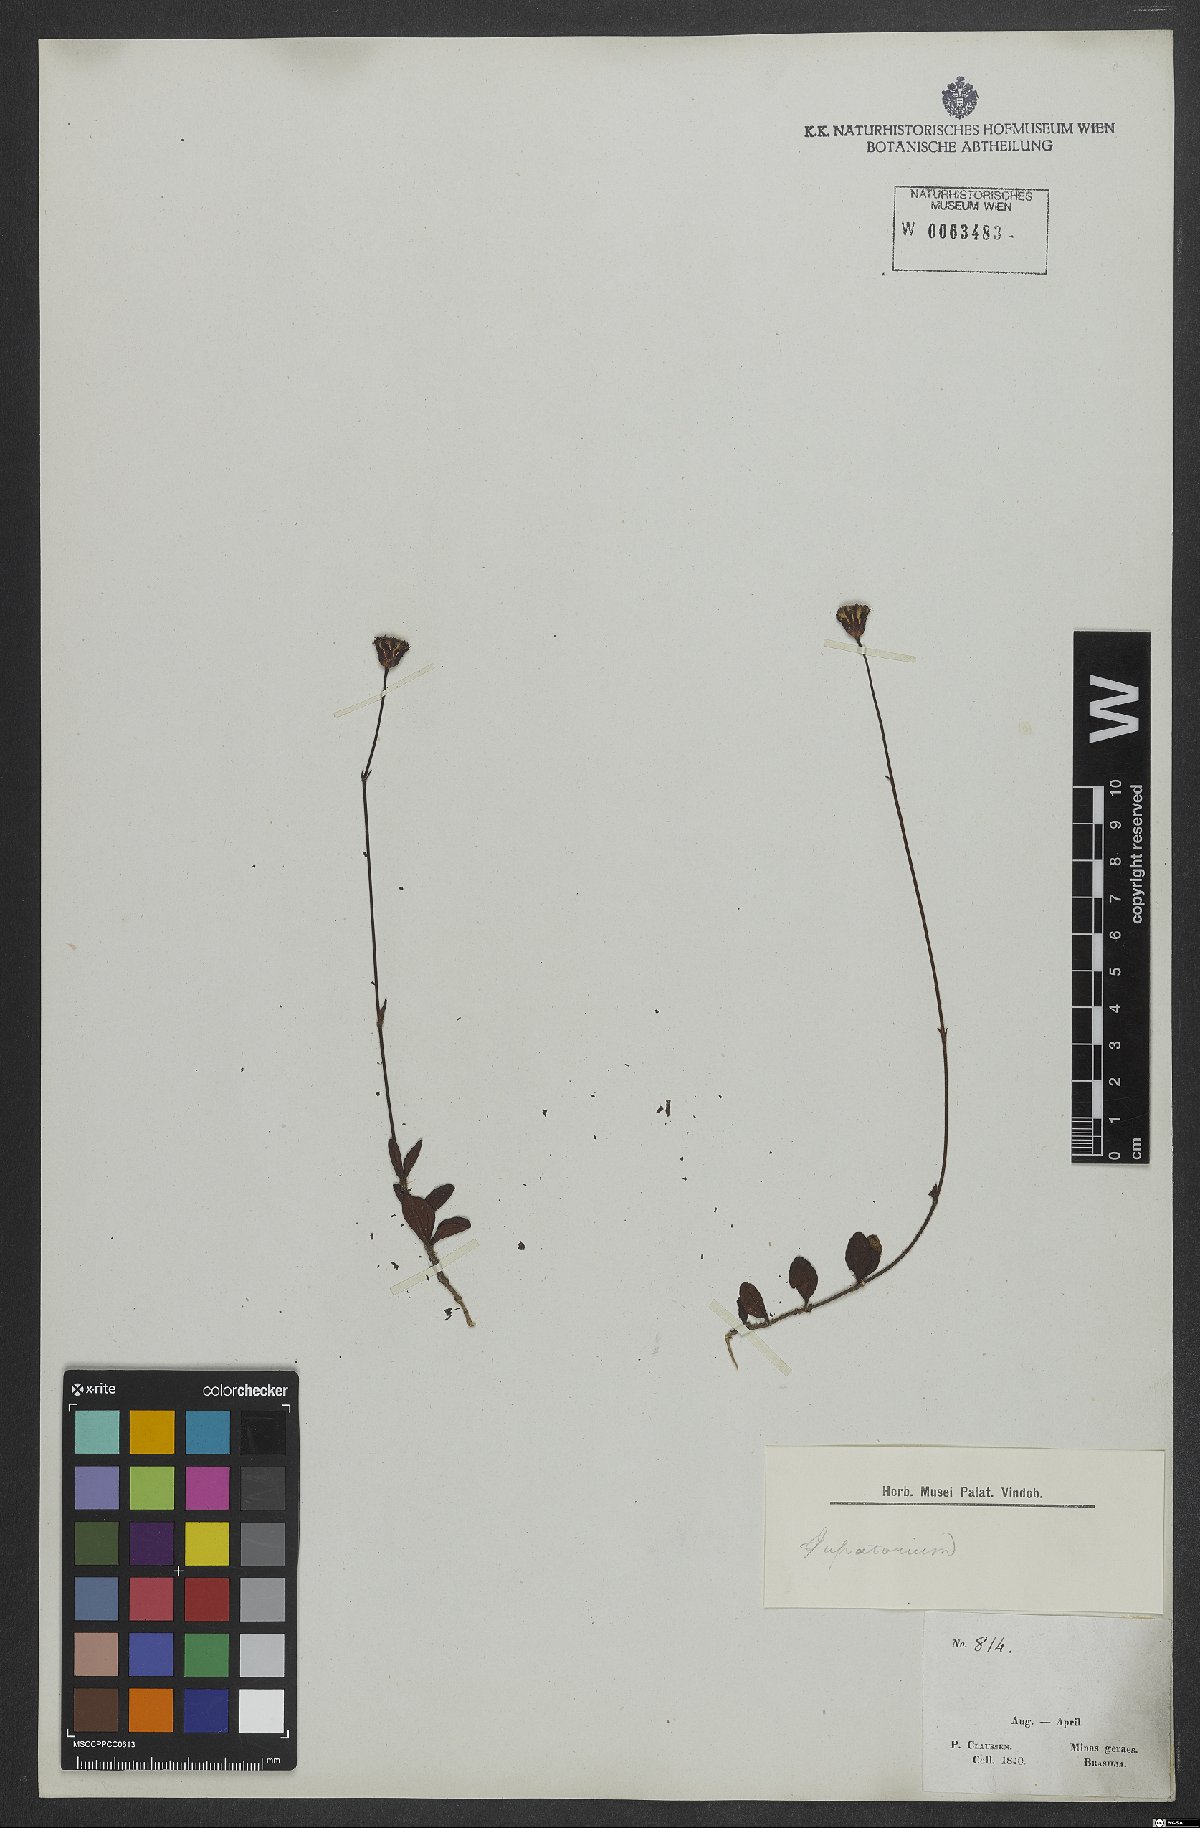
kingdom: Plantae
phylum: Tracheophyta
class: Magnoliopsida
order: Asterales
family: Asteraceae
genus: Porophyllum
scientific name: Porophyllum
